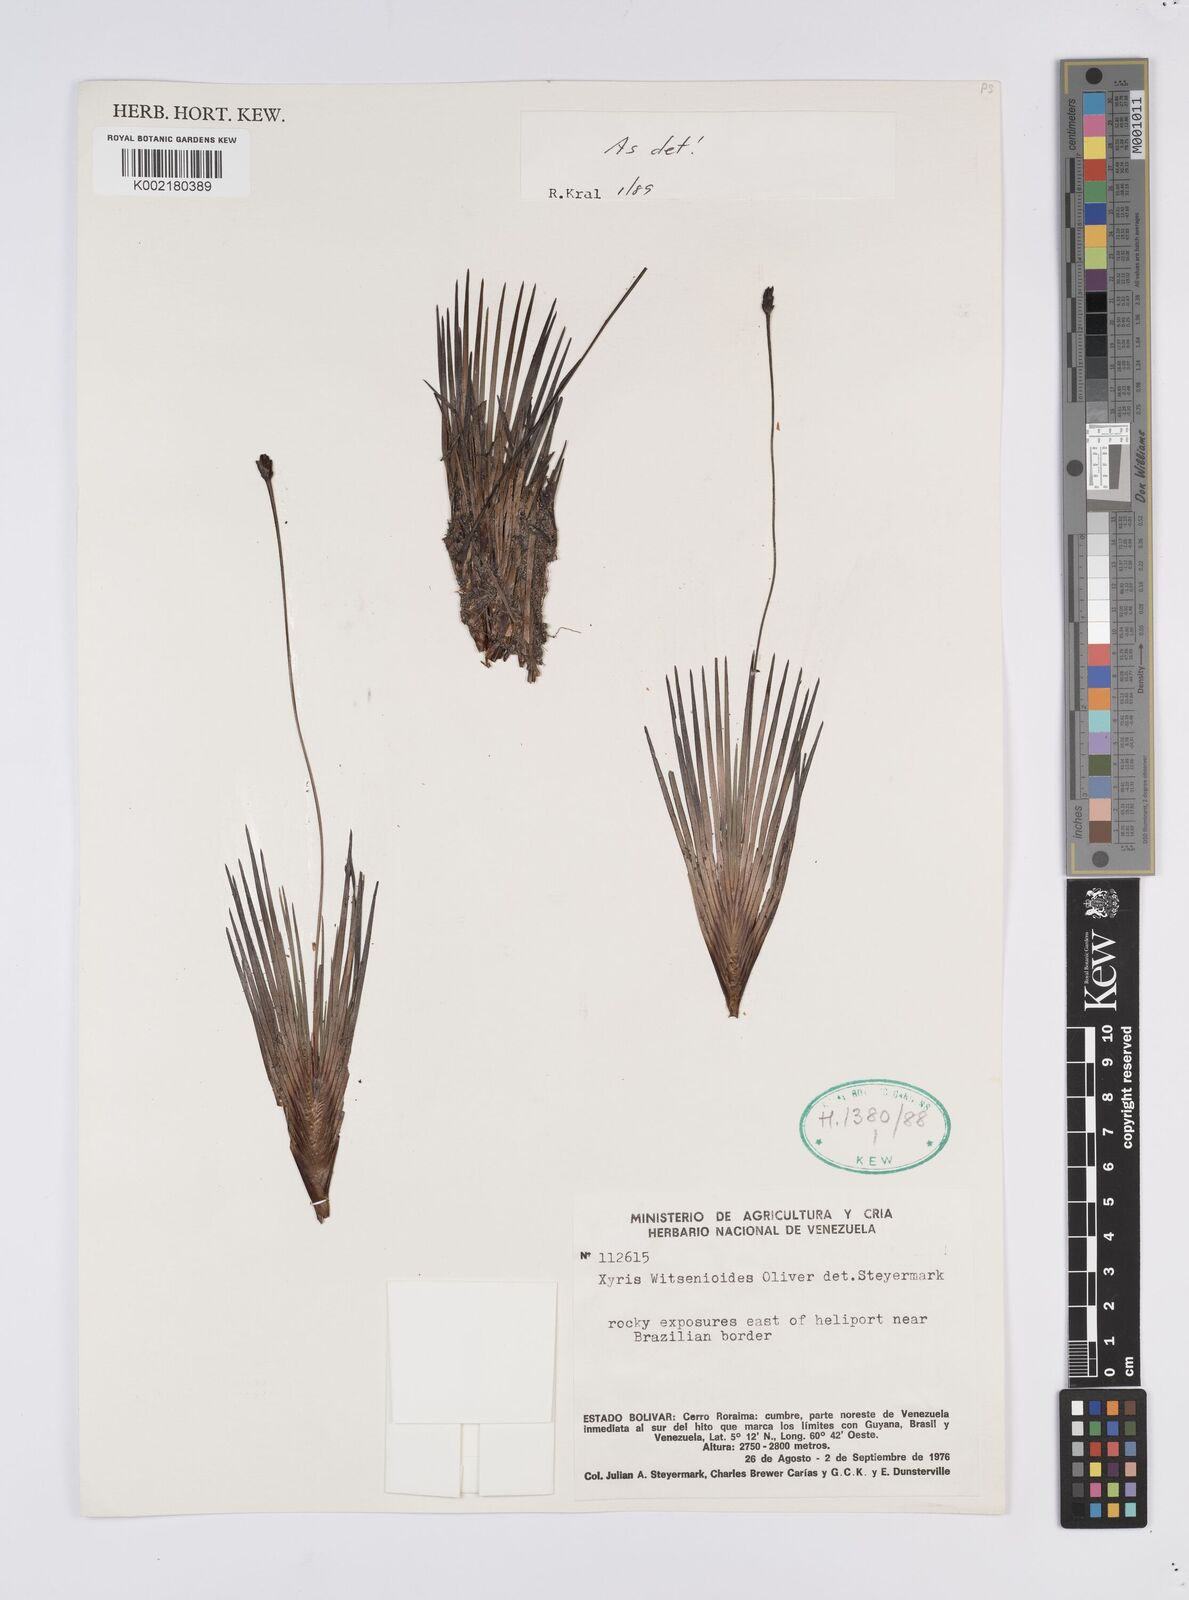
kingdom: Plantae
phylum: Tracheophyta
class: Liliopsida
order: Poales
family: Xyridaceae
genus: Xyris
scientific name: Xyris witsenioides
